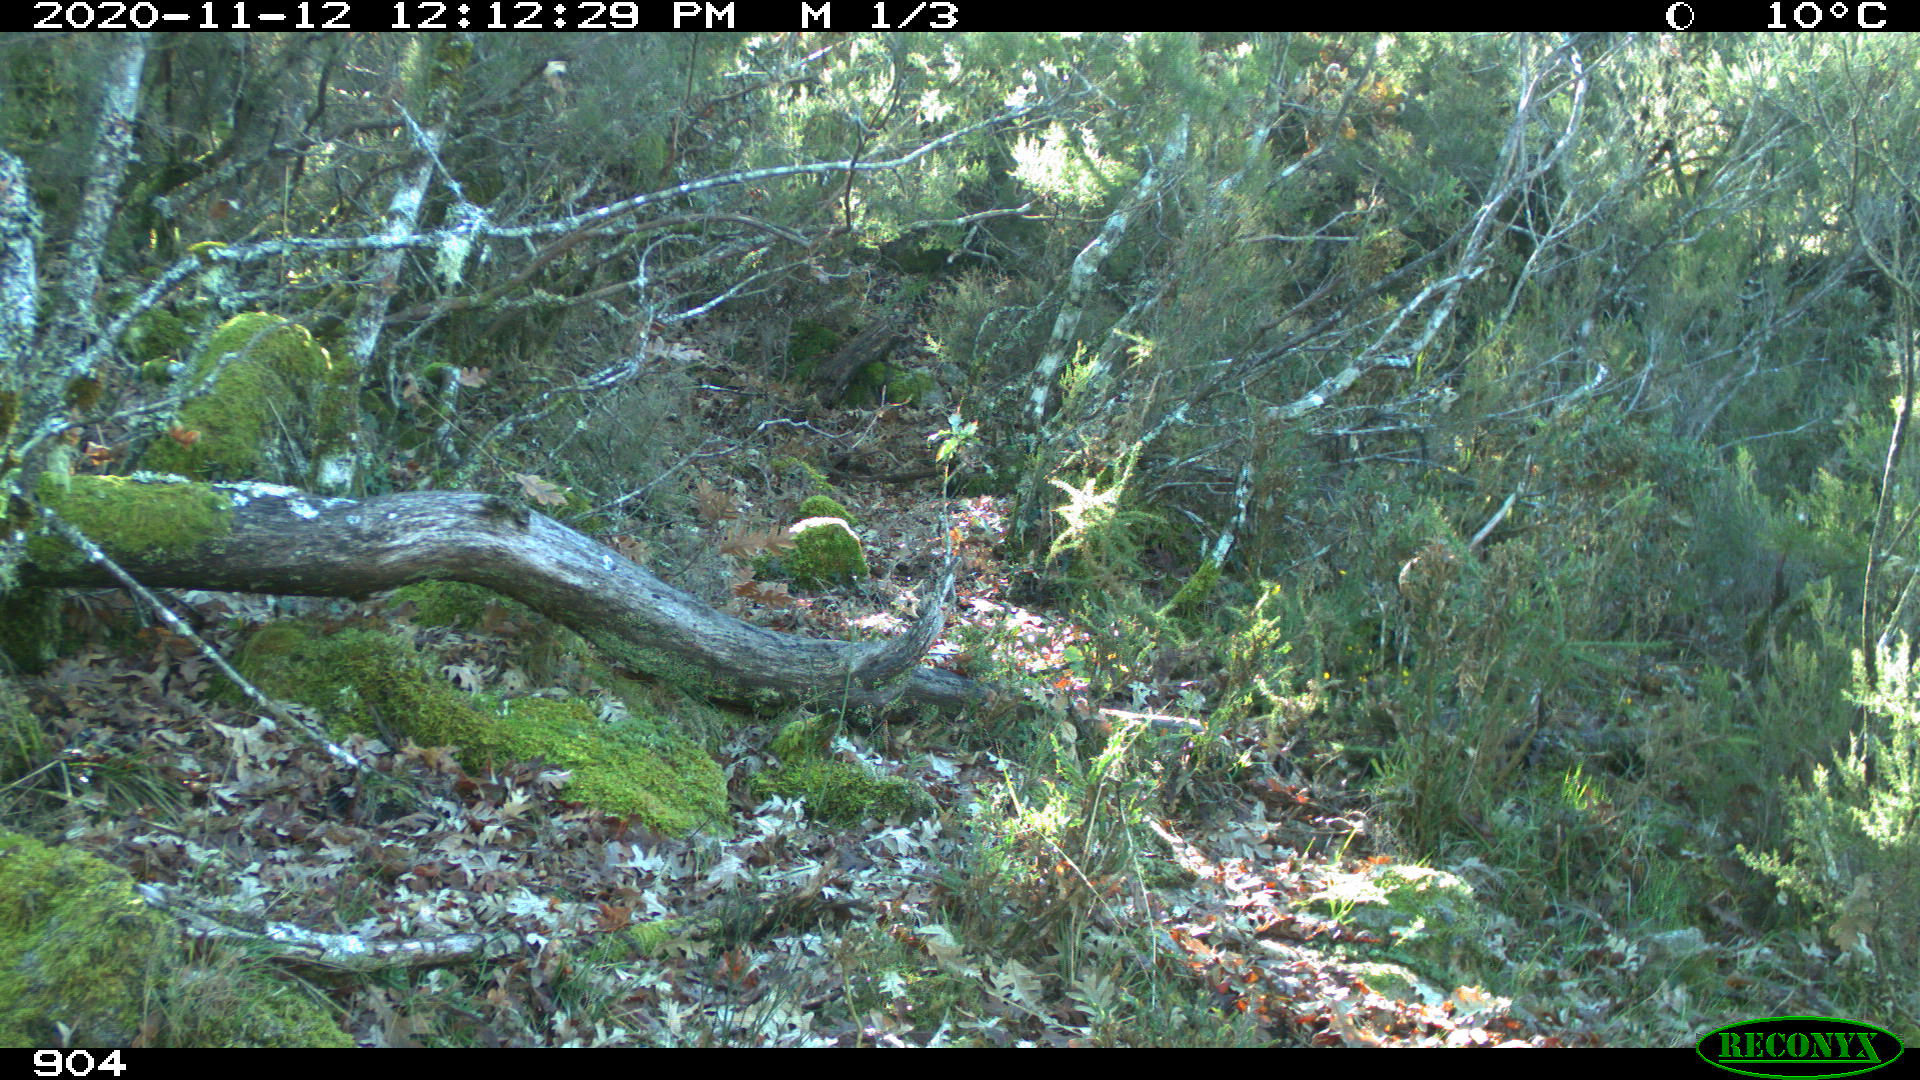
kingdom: Animalia
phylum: Chordata
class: Mammalia
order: Artiodactyla
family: Bovidae
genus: Bos
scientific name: Bos taurus
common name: Domesticated cattle
